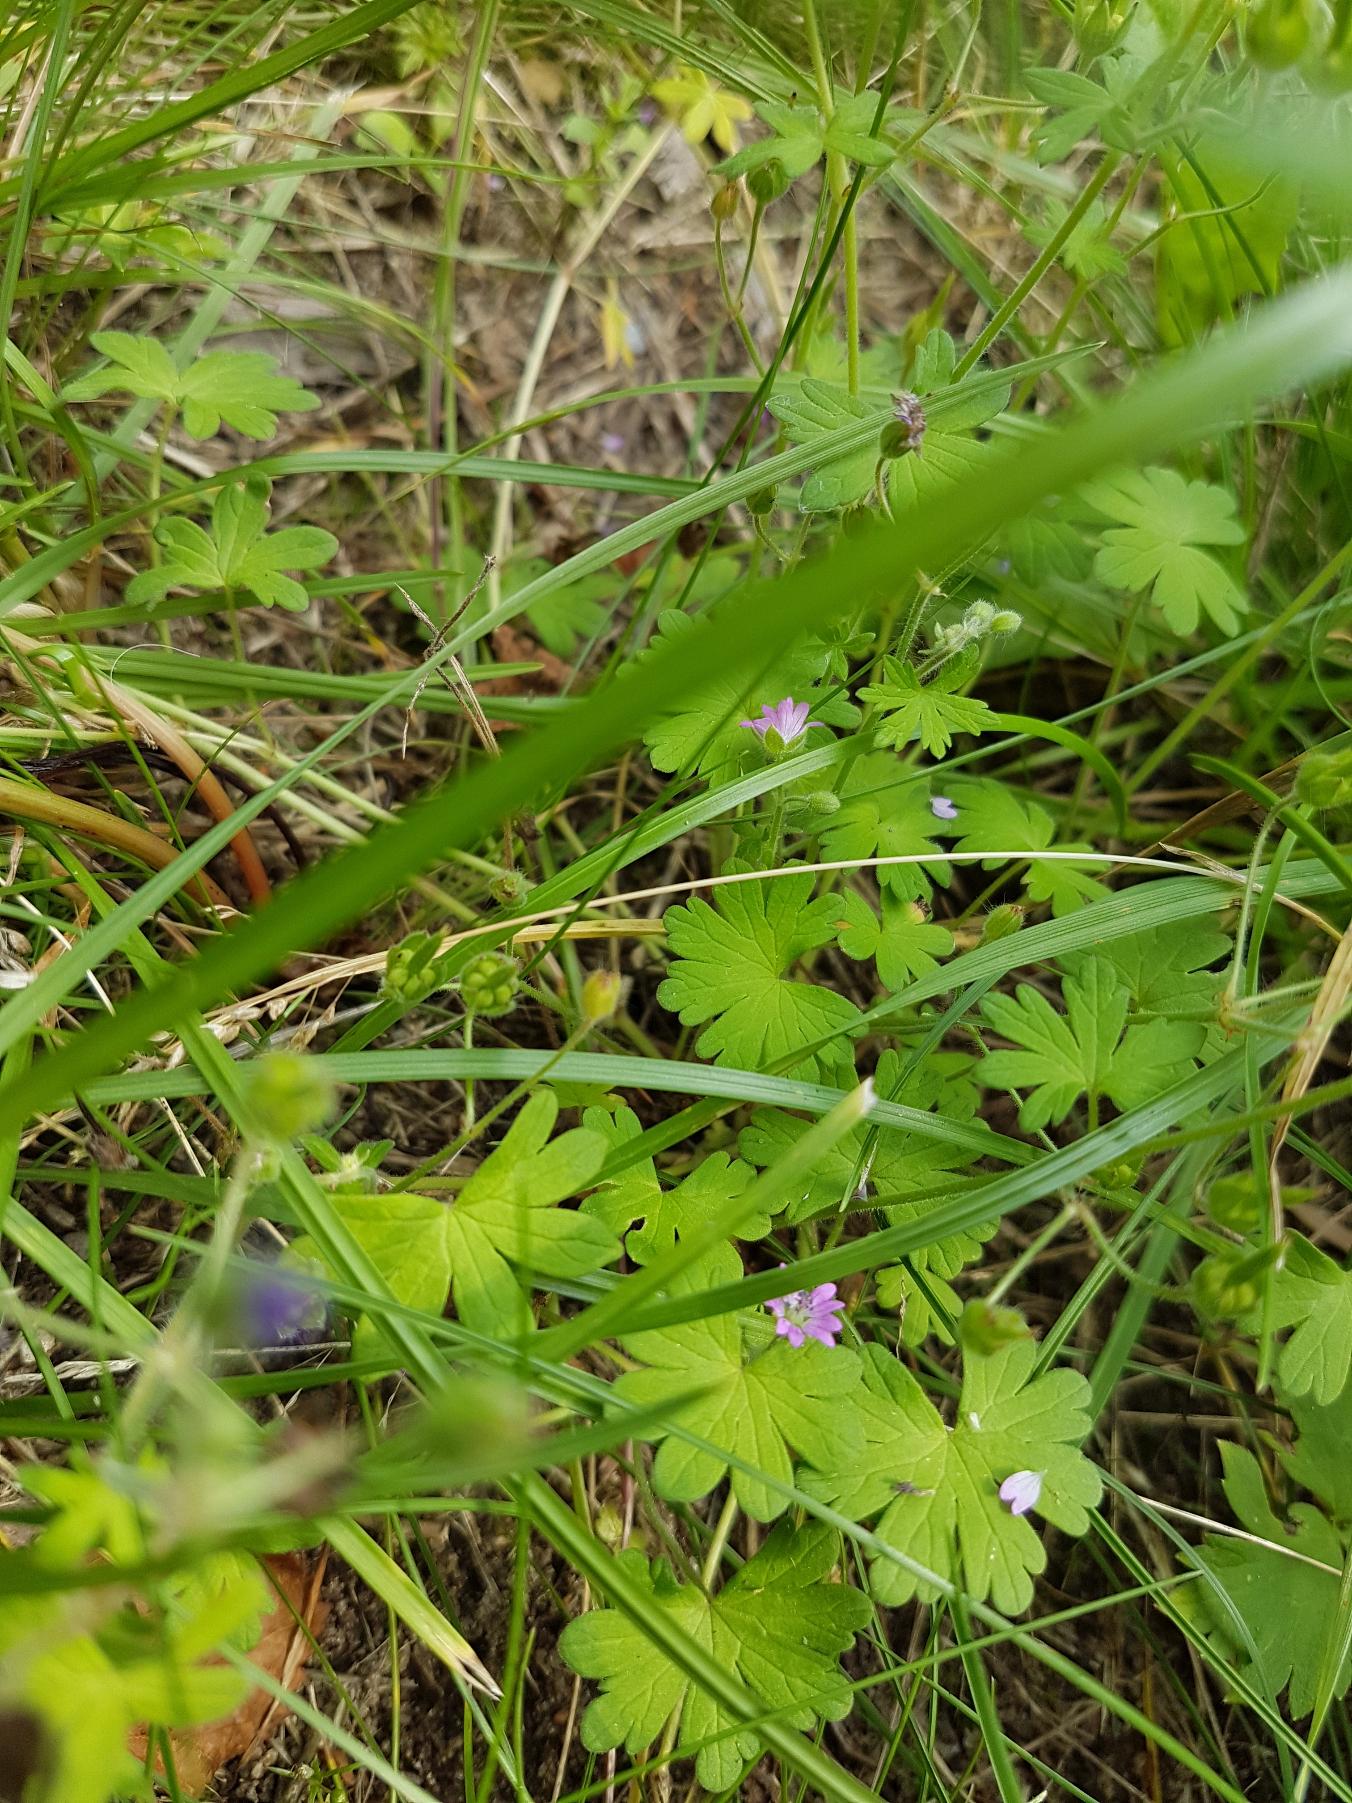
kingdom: Plantae
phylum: Tracheophyta
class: Magnoliopsida
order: Geraniales
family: Geraniaceae
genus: Geranium
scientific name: Geranium pusillum
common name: Liden storkenæb
